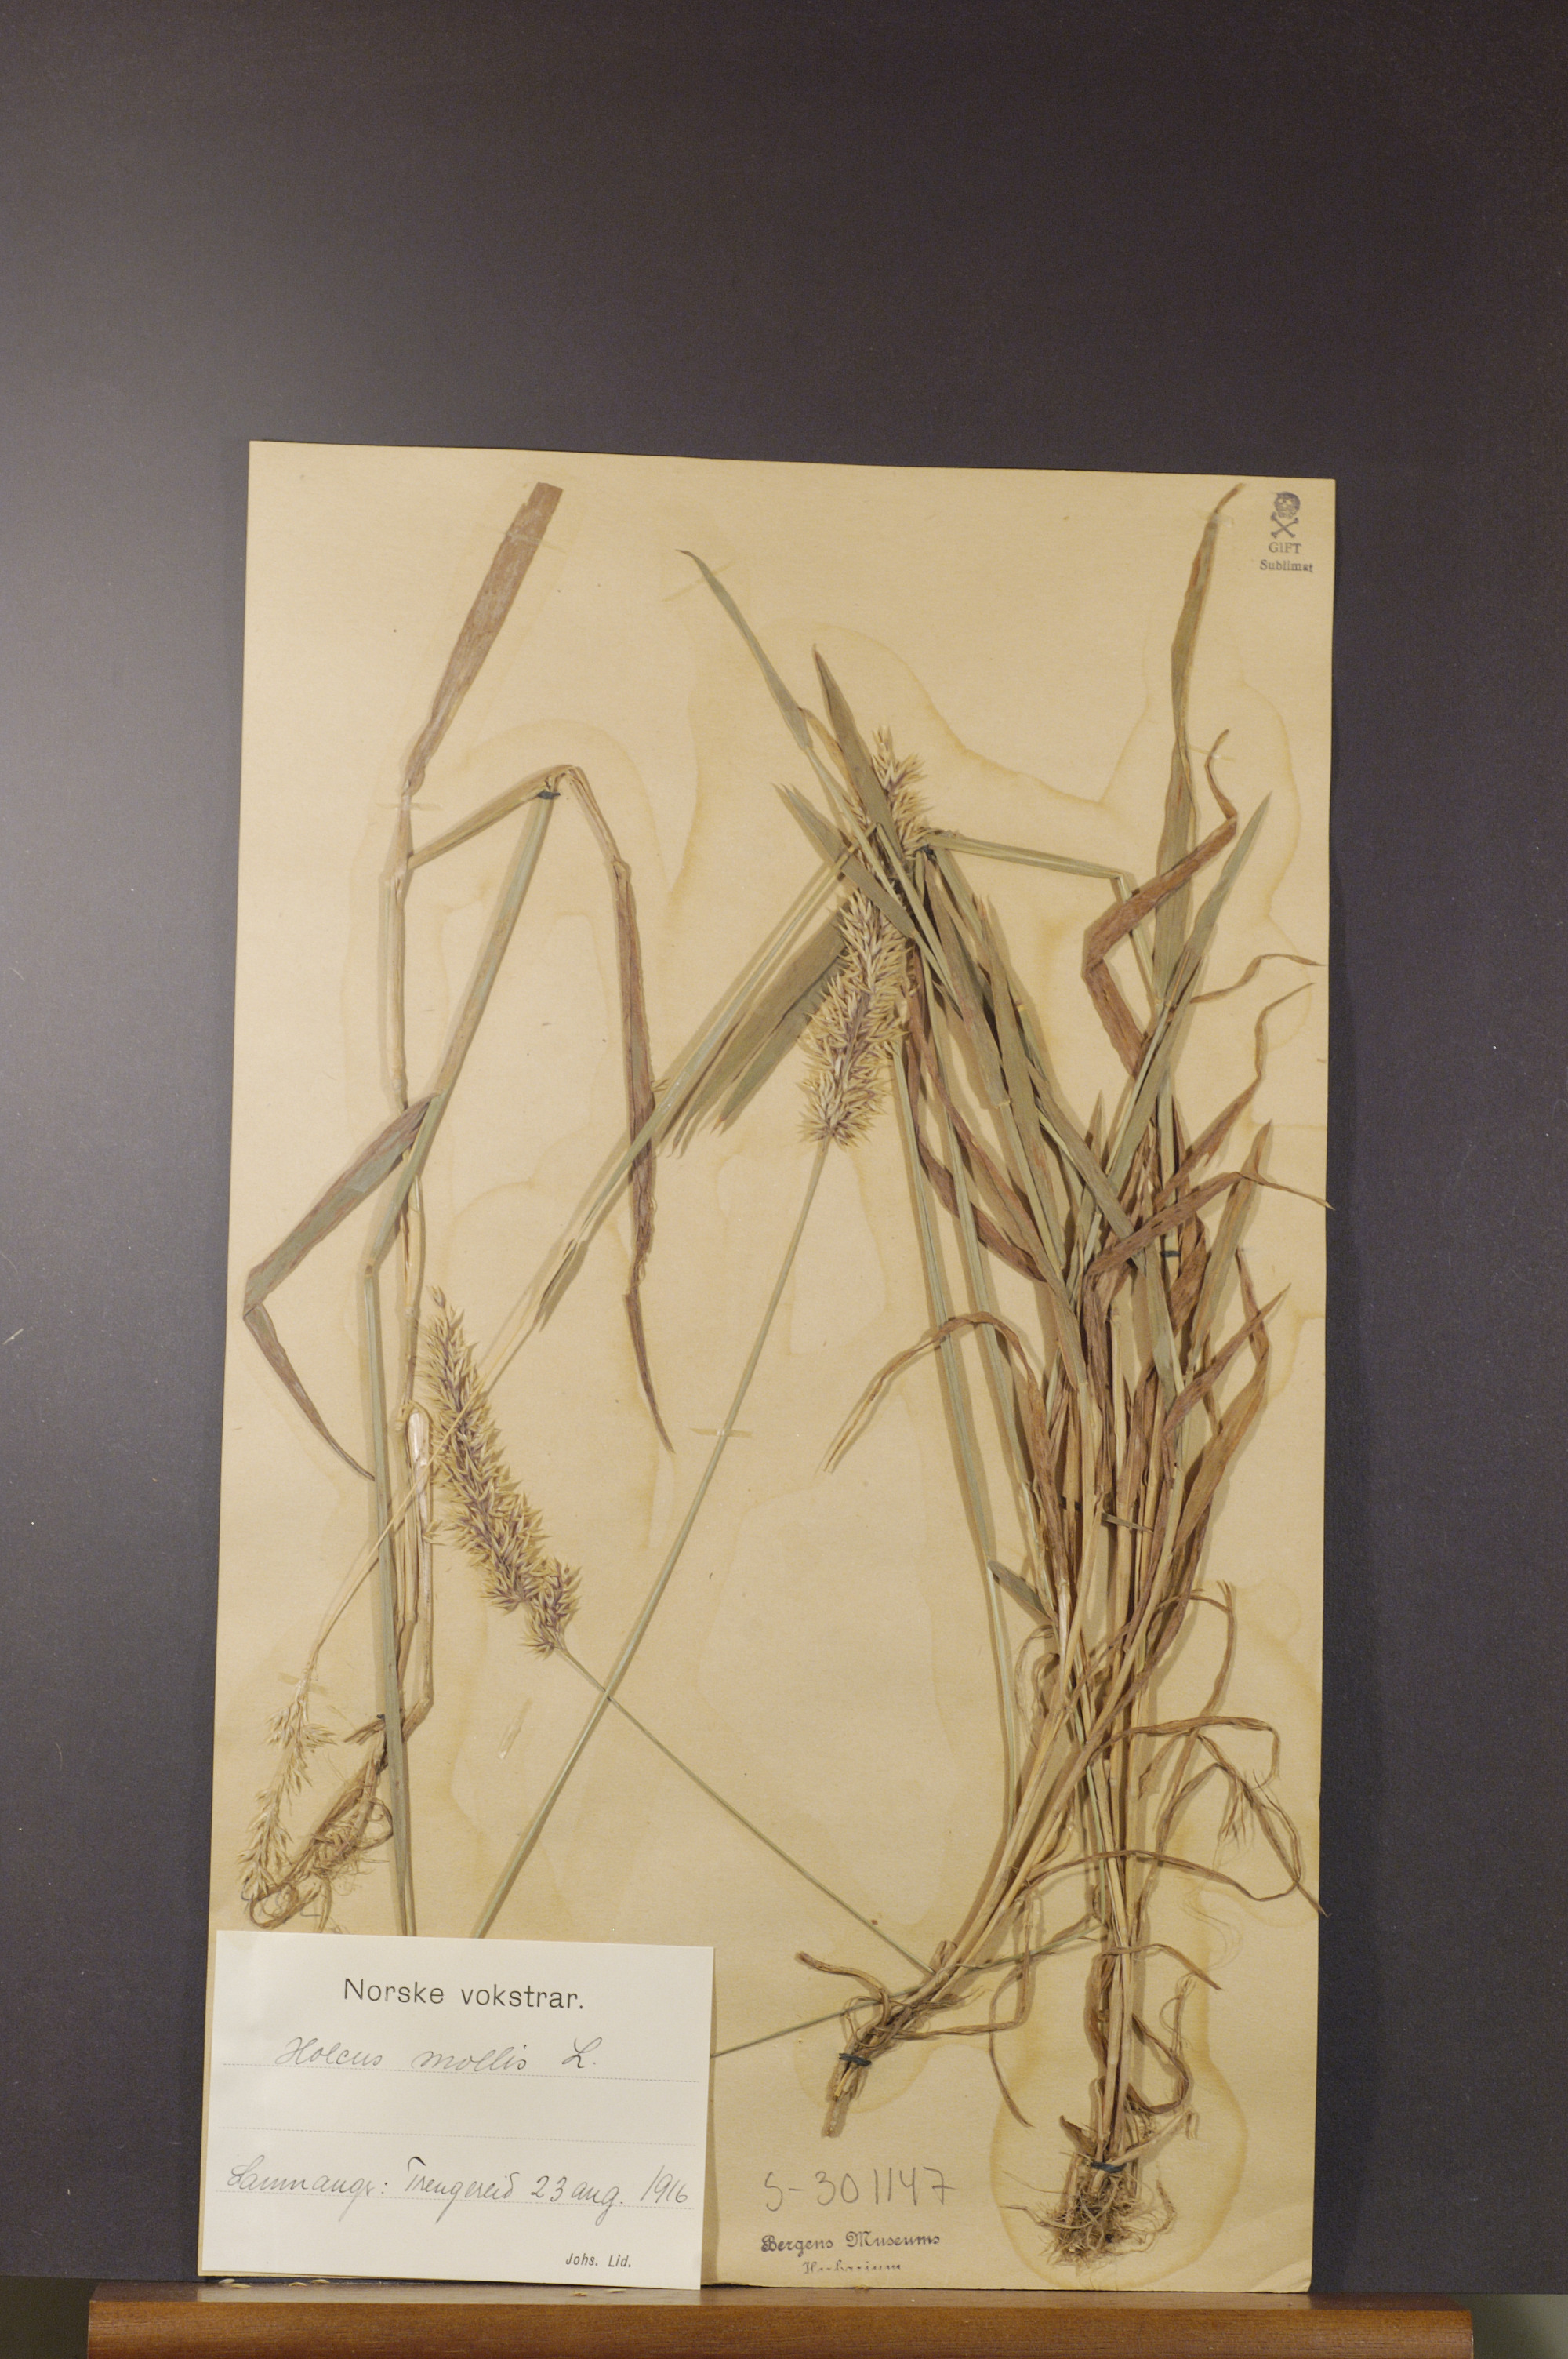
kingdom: Plantae
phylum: Tracheophyta
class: Liliopsida
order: Poales
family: Poaceae
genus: Holcus
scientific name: Holcus mollis
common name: Creeping velvetgrass
